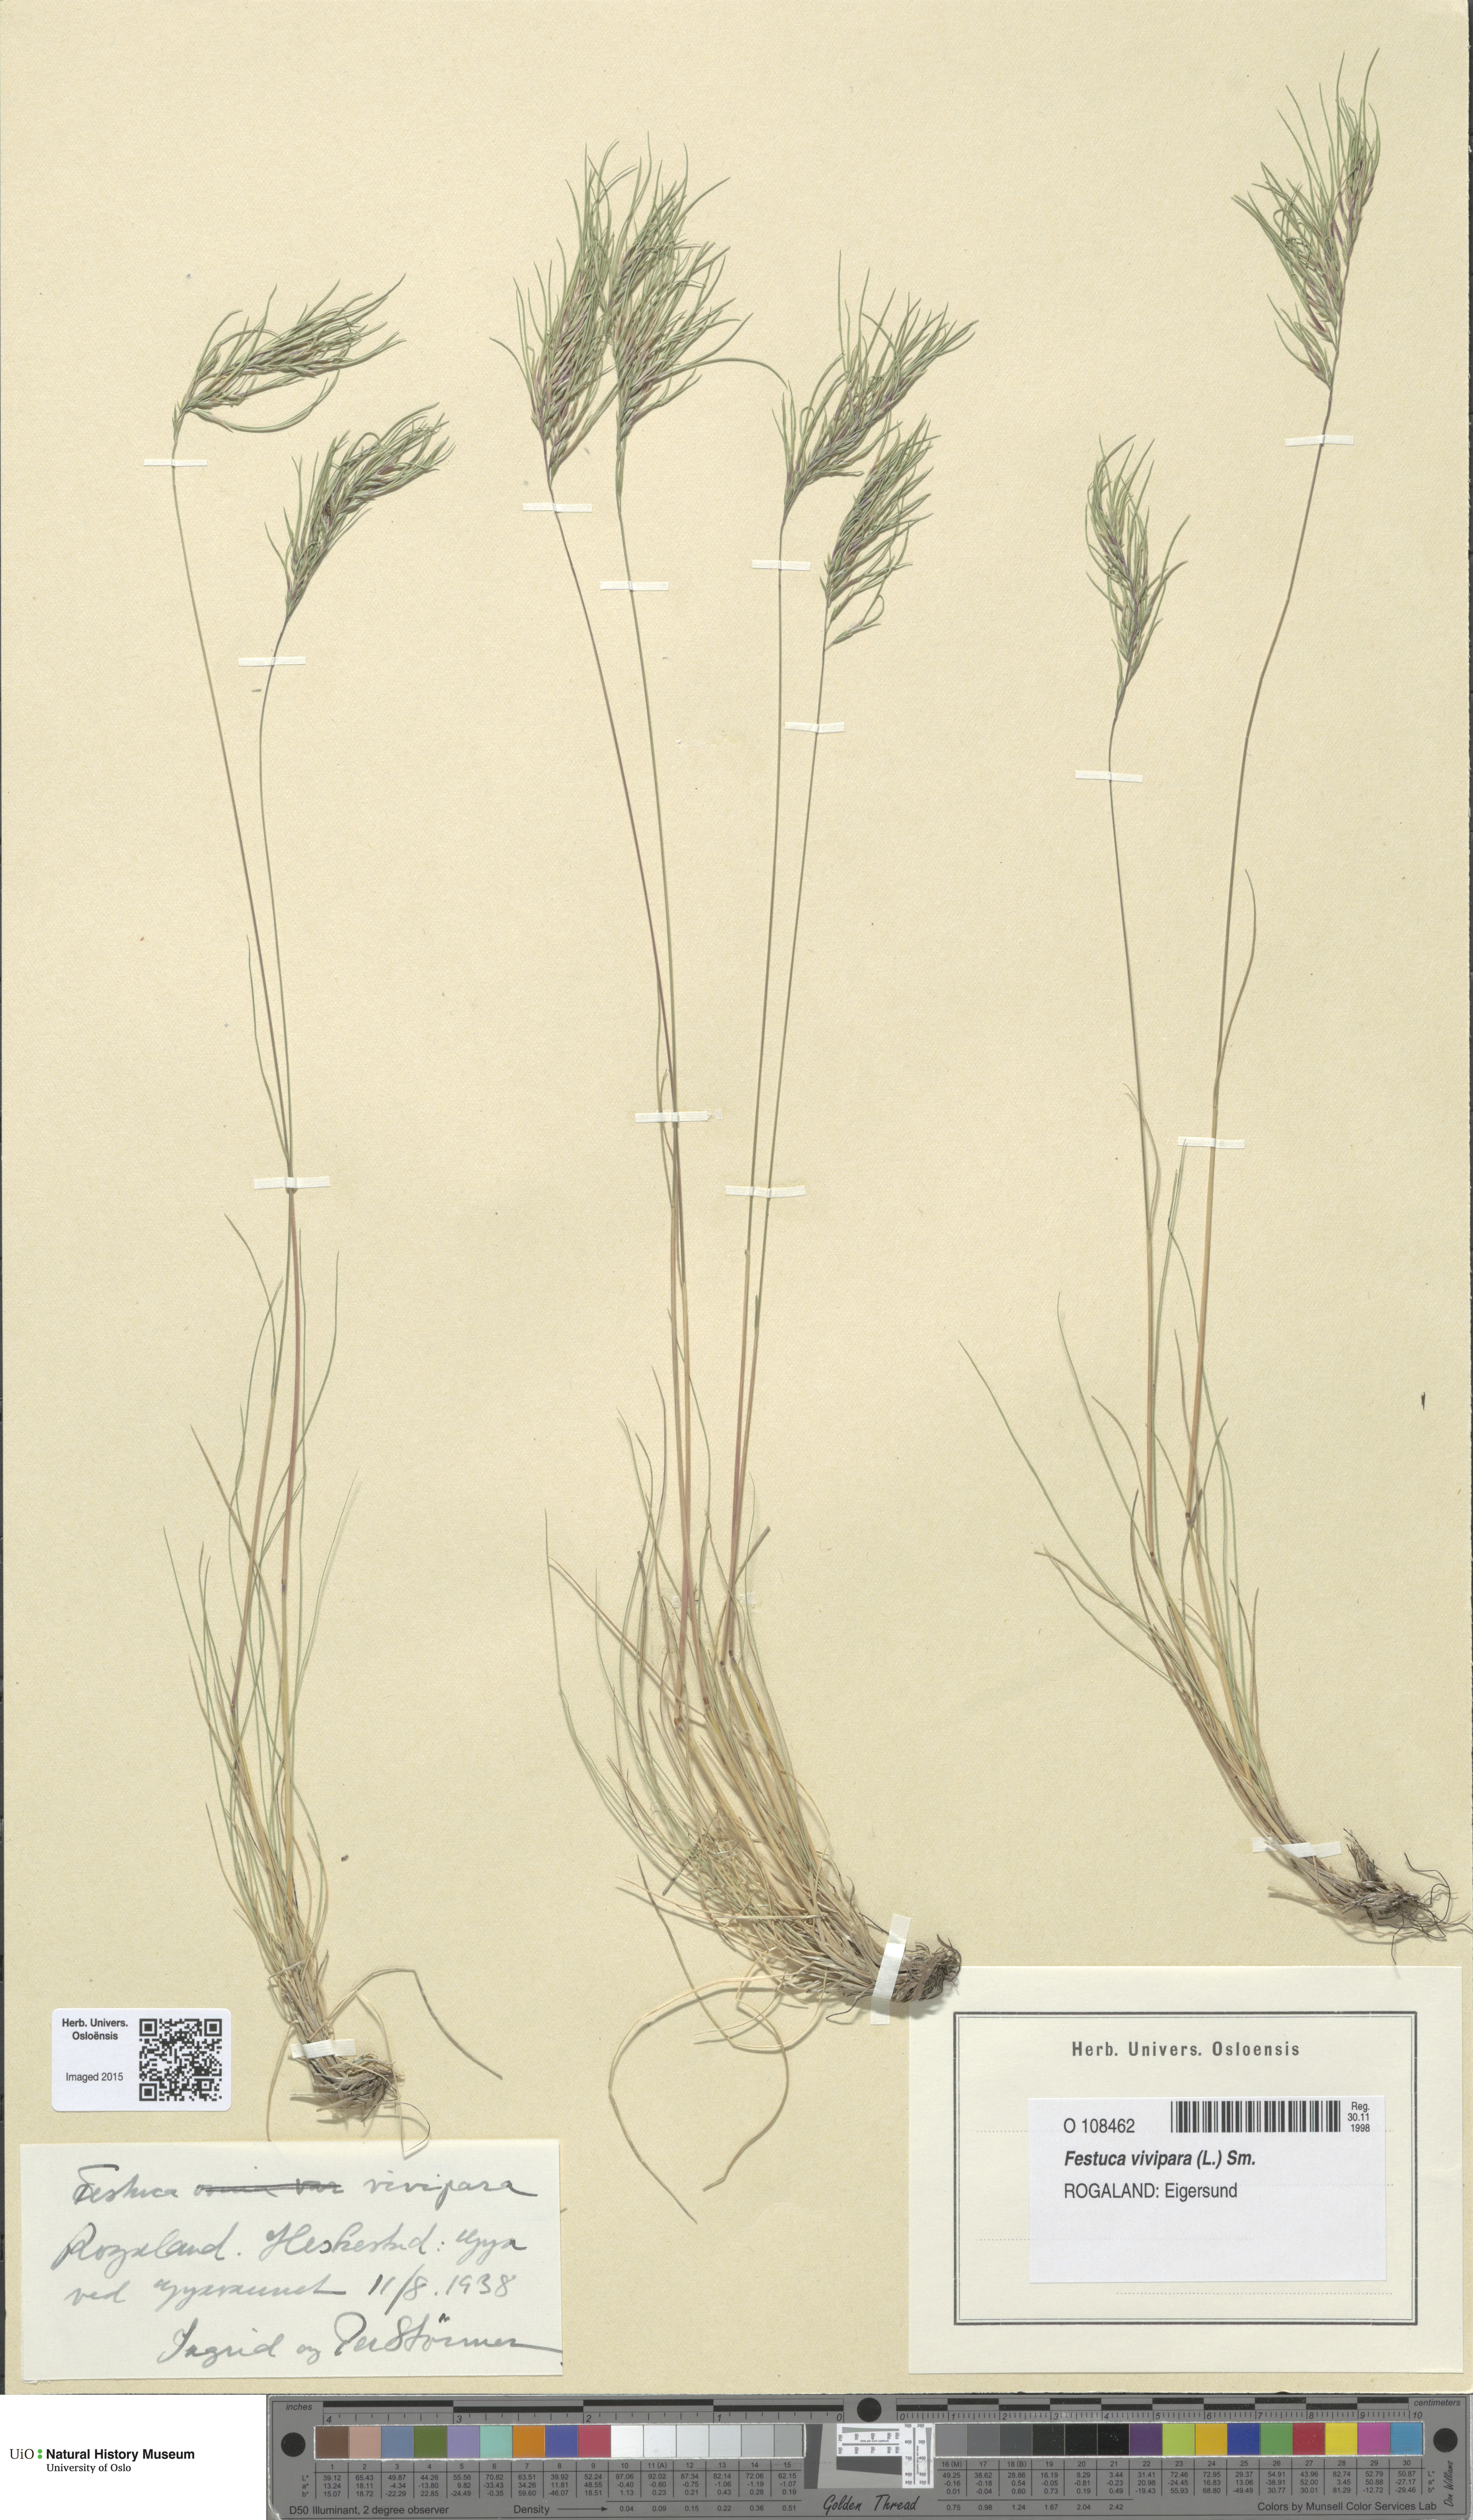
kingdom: Plantae
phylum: Tracheophyta
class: Liliopsida
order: Poales
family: Poaceae
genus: Festuca
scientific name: Festuca vivipara
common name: Viviparous sheep's-fescue
